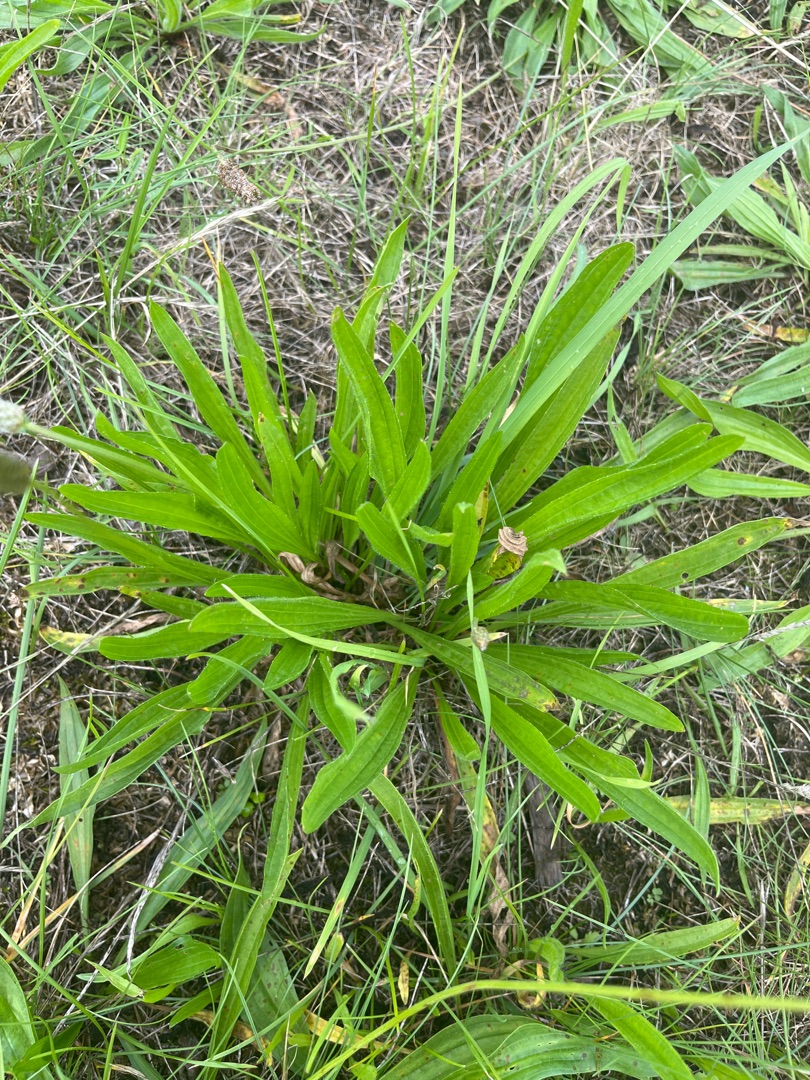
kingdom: Plantae
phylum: Tracheophyta
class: Magnoliopsida
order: Lamiales
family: Plantaginaceae
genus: Plantago
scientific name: Plantago lanceolata
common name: Lancet-vejbred
